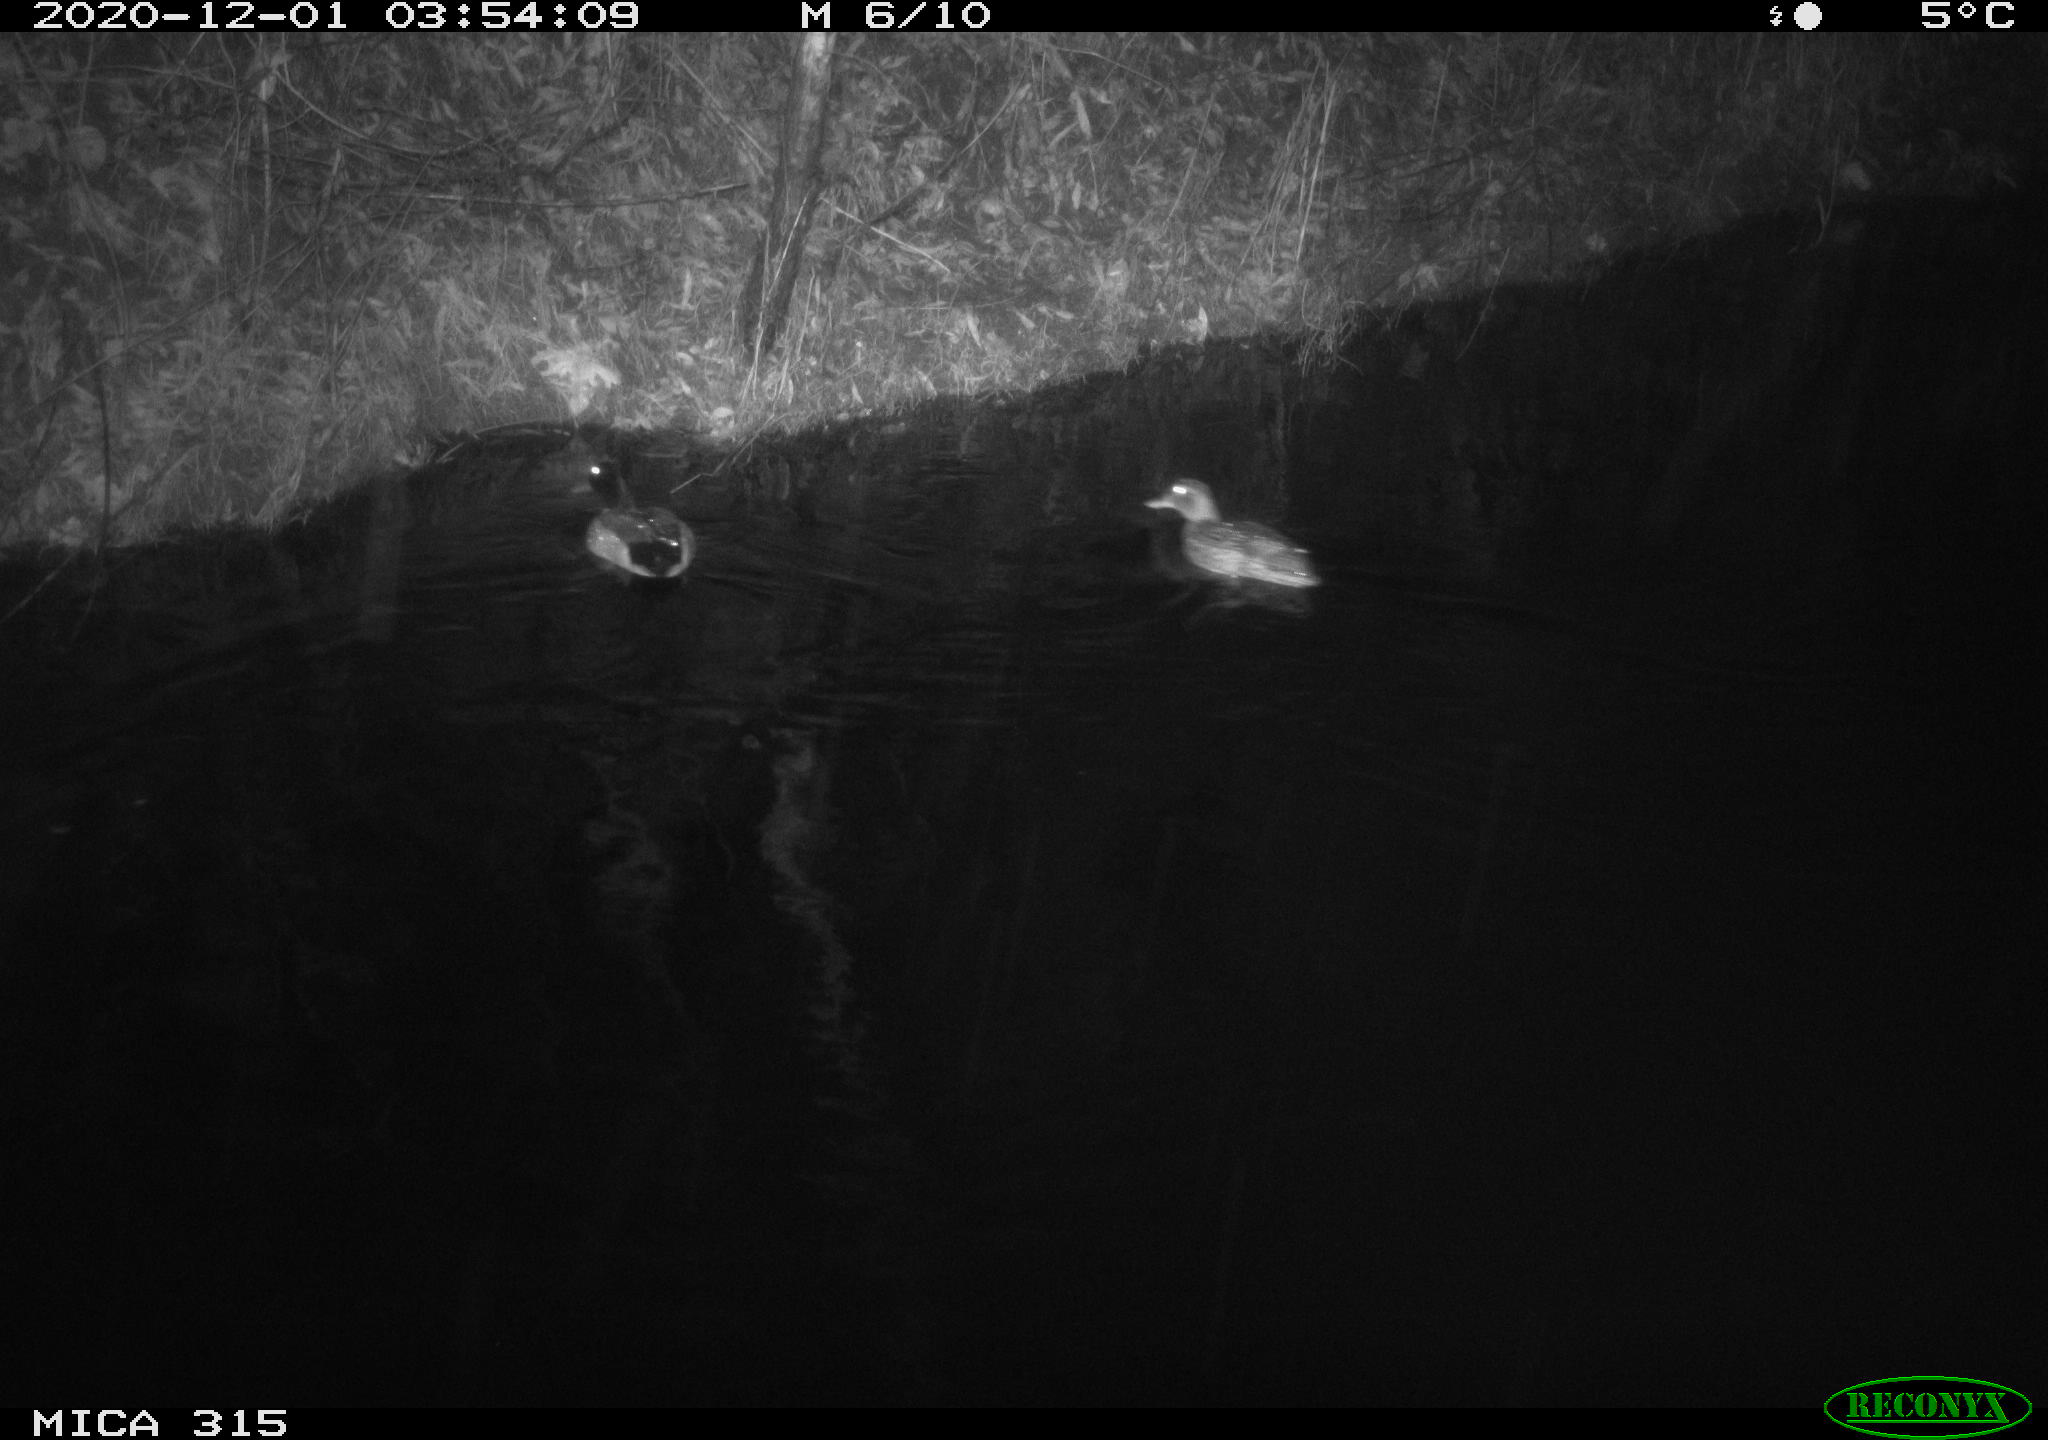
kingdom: Animalia
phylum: Chordata
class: Aves
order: Anseriformes
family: Anatidae
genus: Anas
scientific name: Anas platyrhynchos
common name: Mallard
